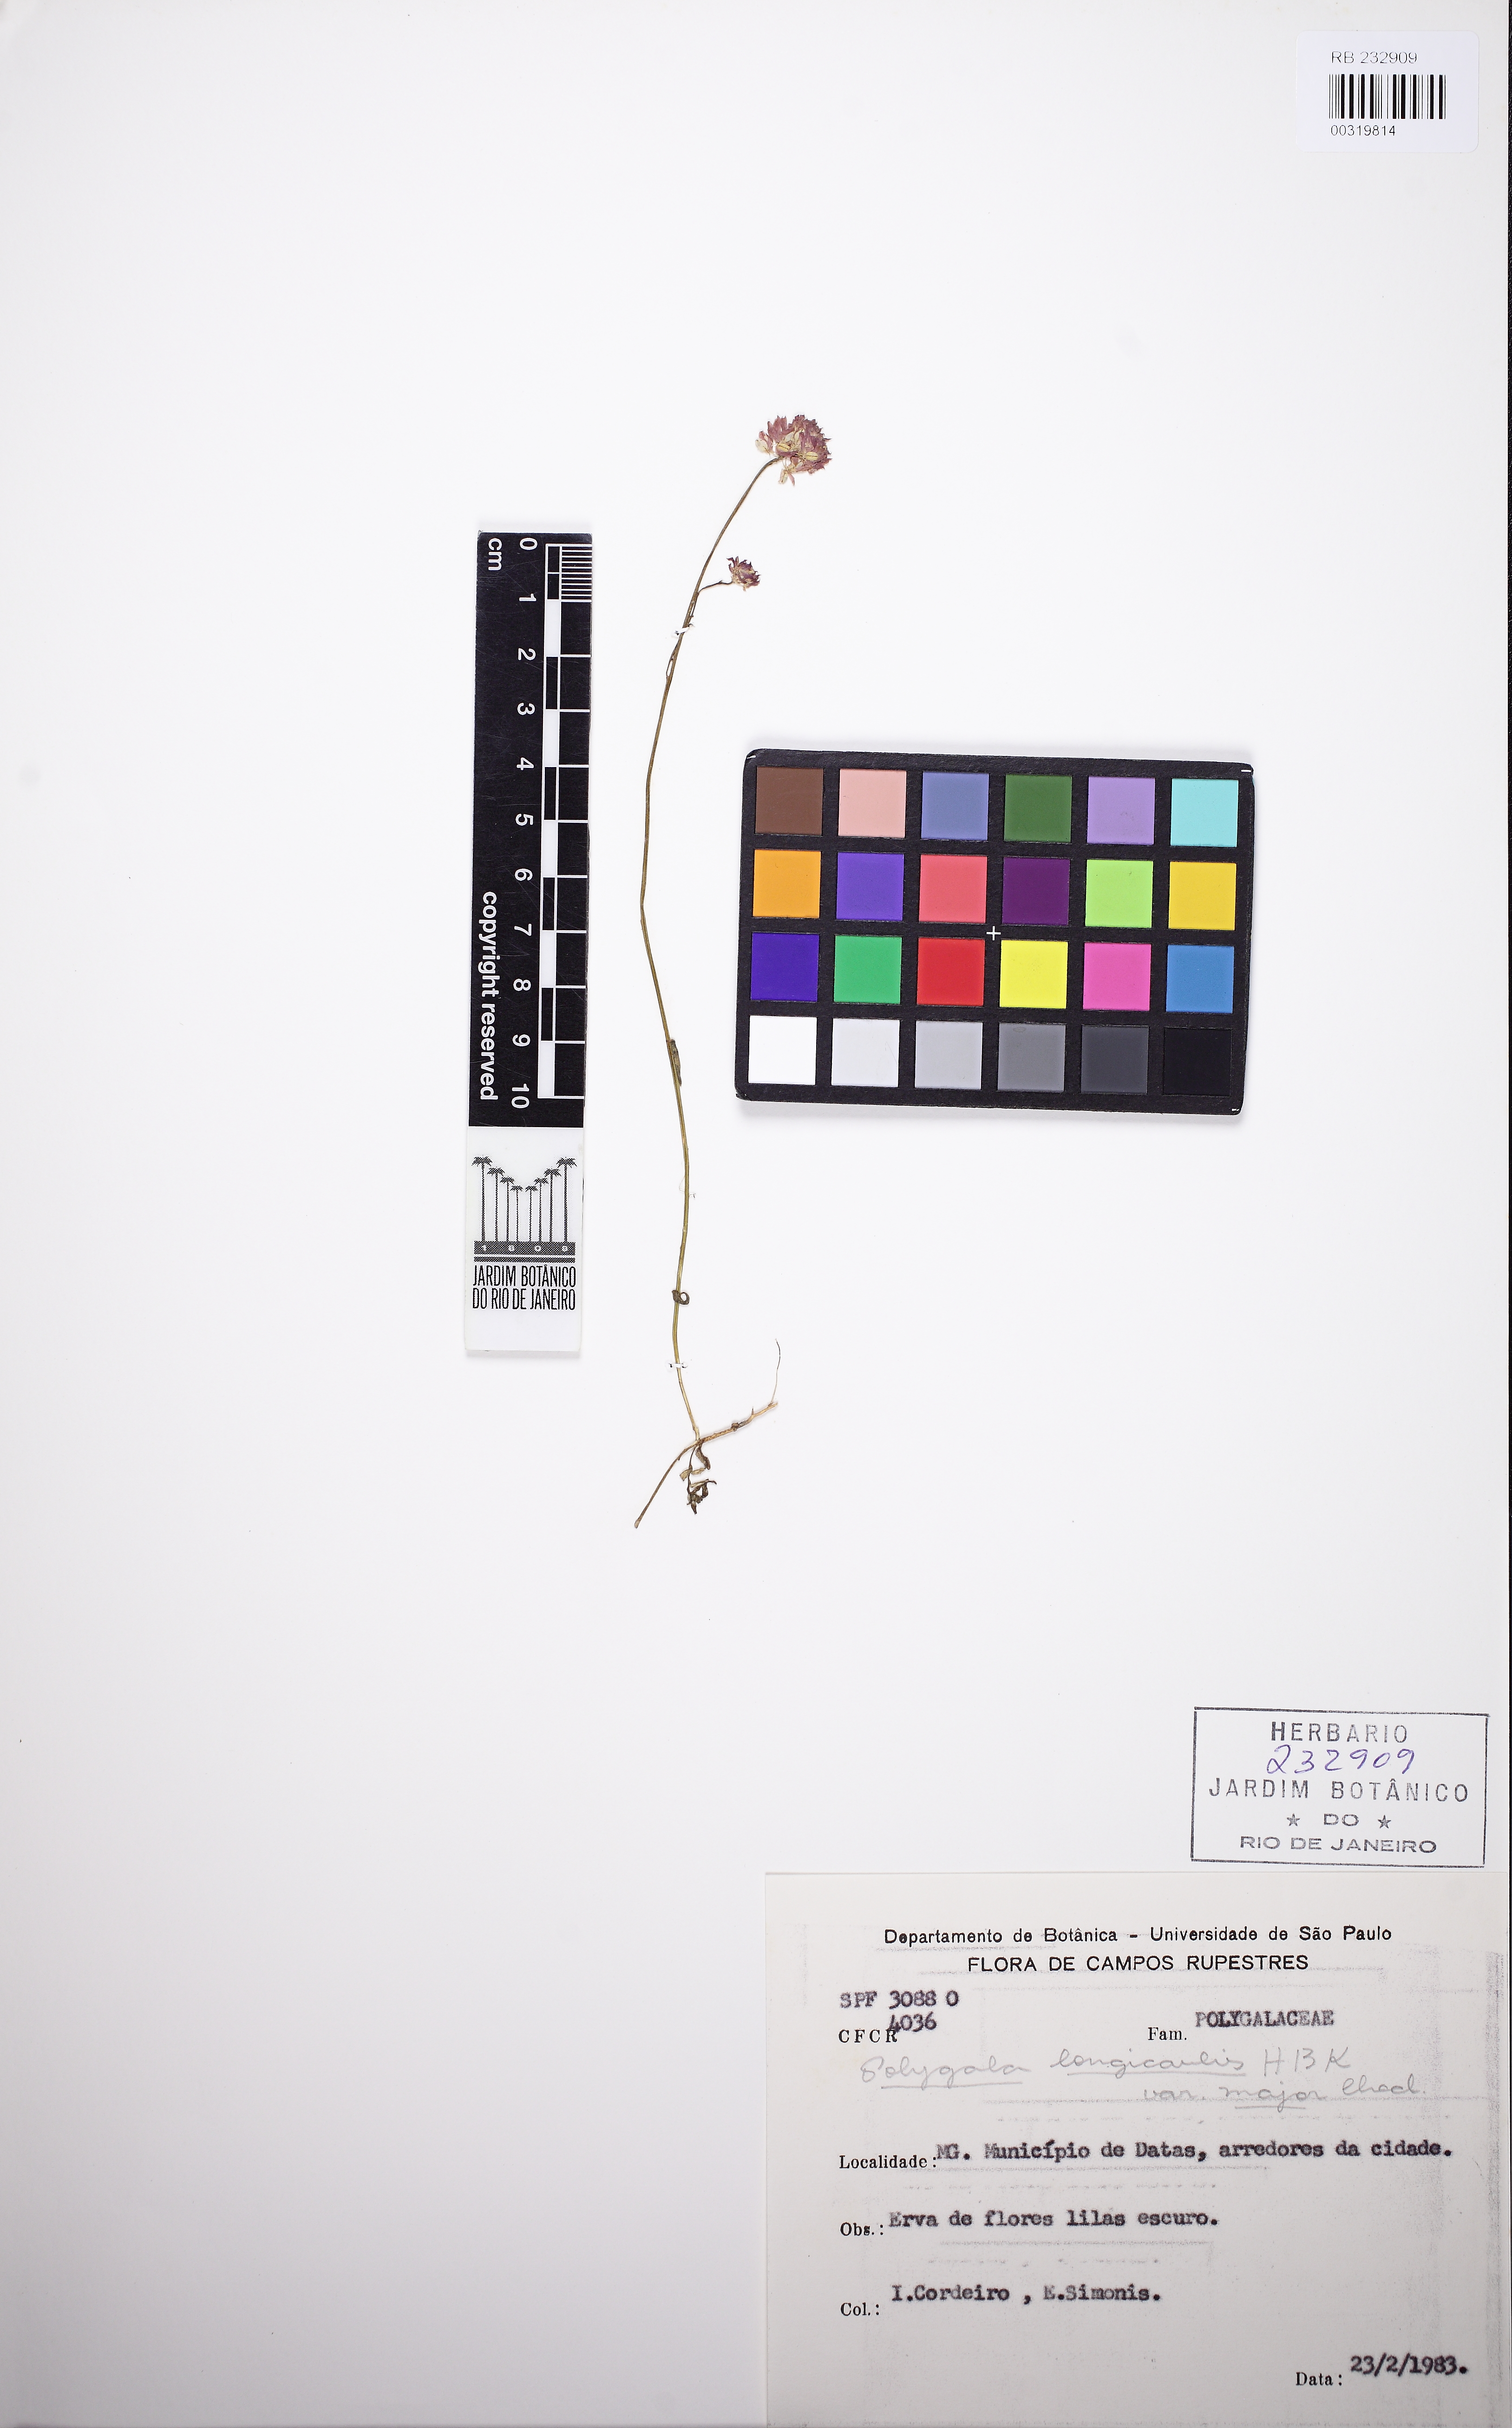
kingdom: Plantae
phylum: Tracheophyta
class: Magnoliopsida
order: Fabales
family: Polygalaceae
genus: Polygala
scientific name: Polygala longicaulis
